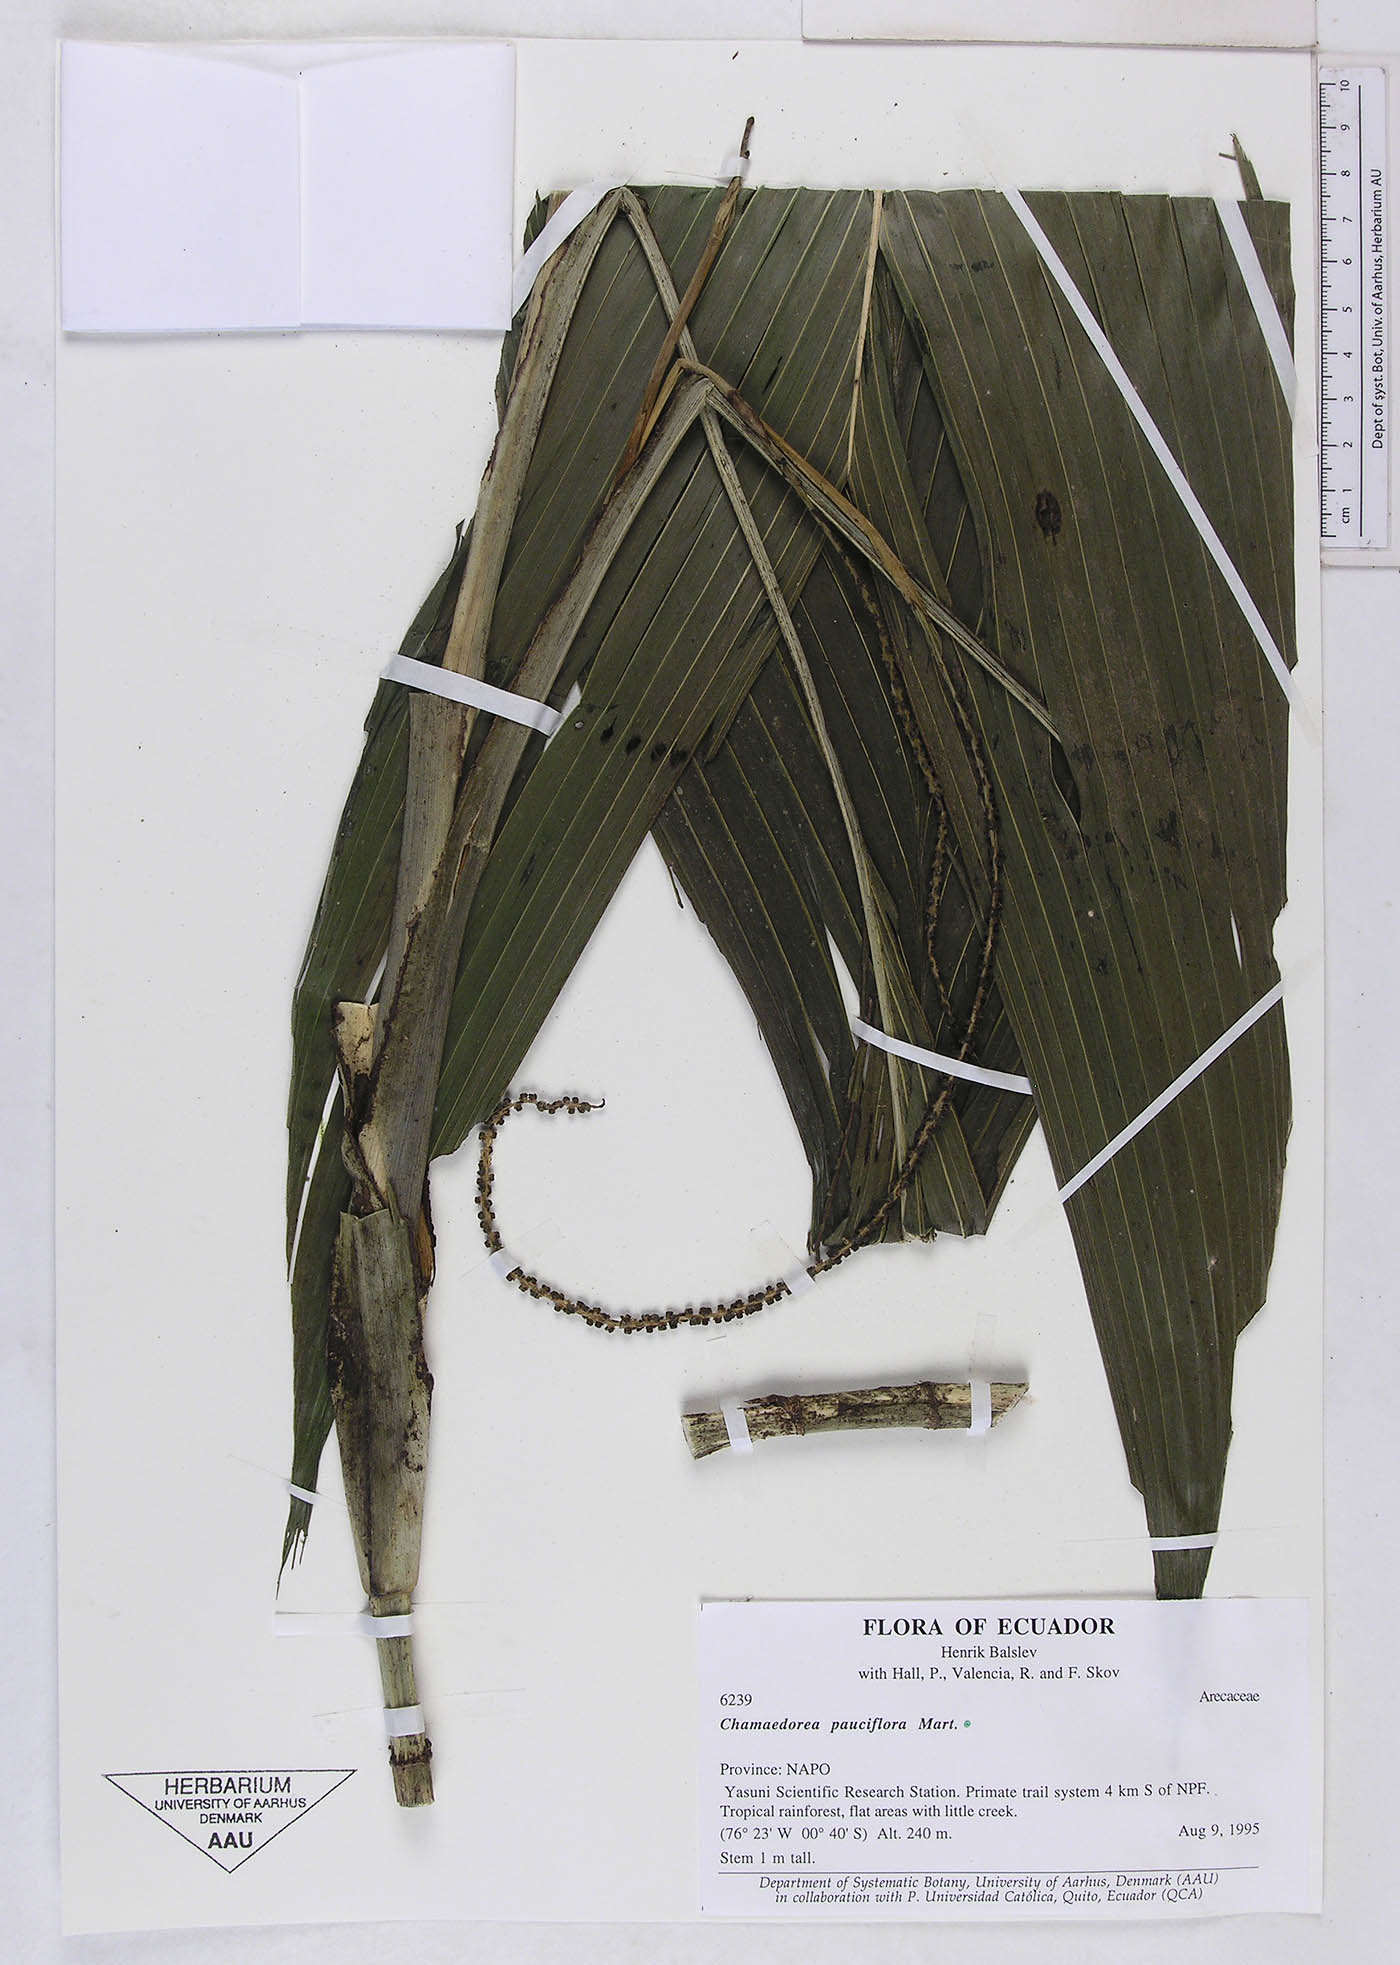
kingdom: Plantae
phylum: Tracheophyta
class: Liliopsida
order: Arecales
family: Arecaceae
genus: Chamaedorea
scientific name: Chamaedorea pauciflora
